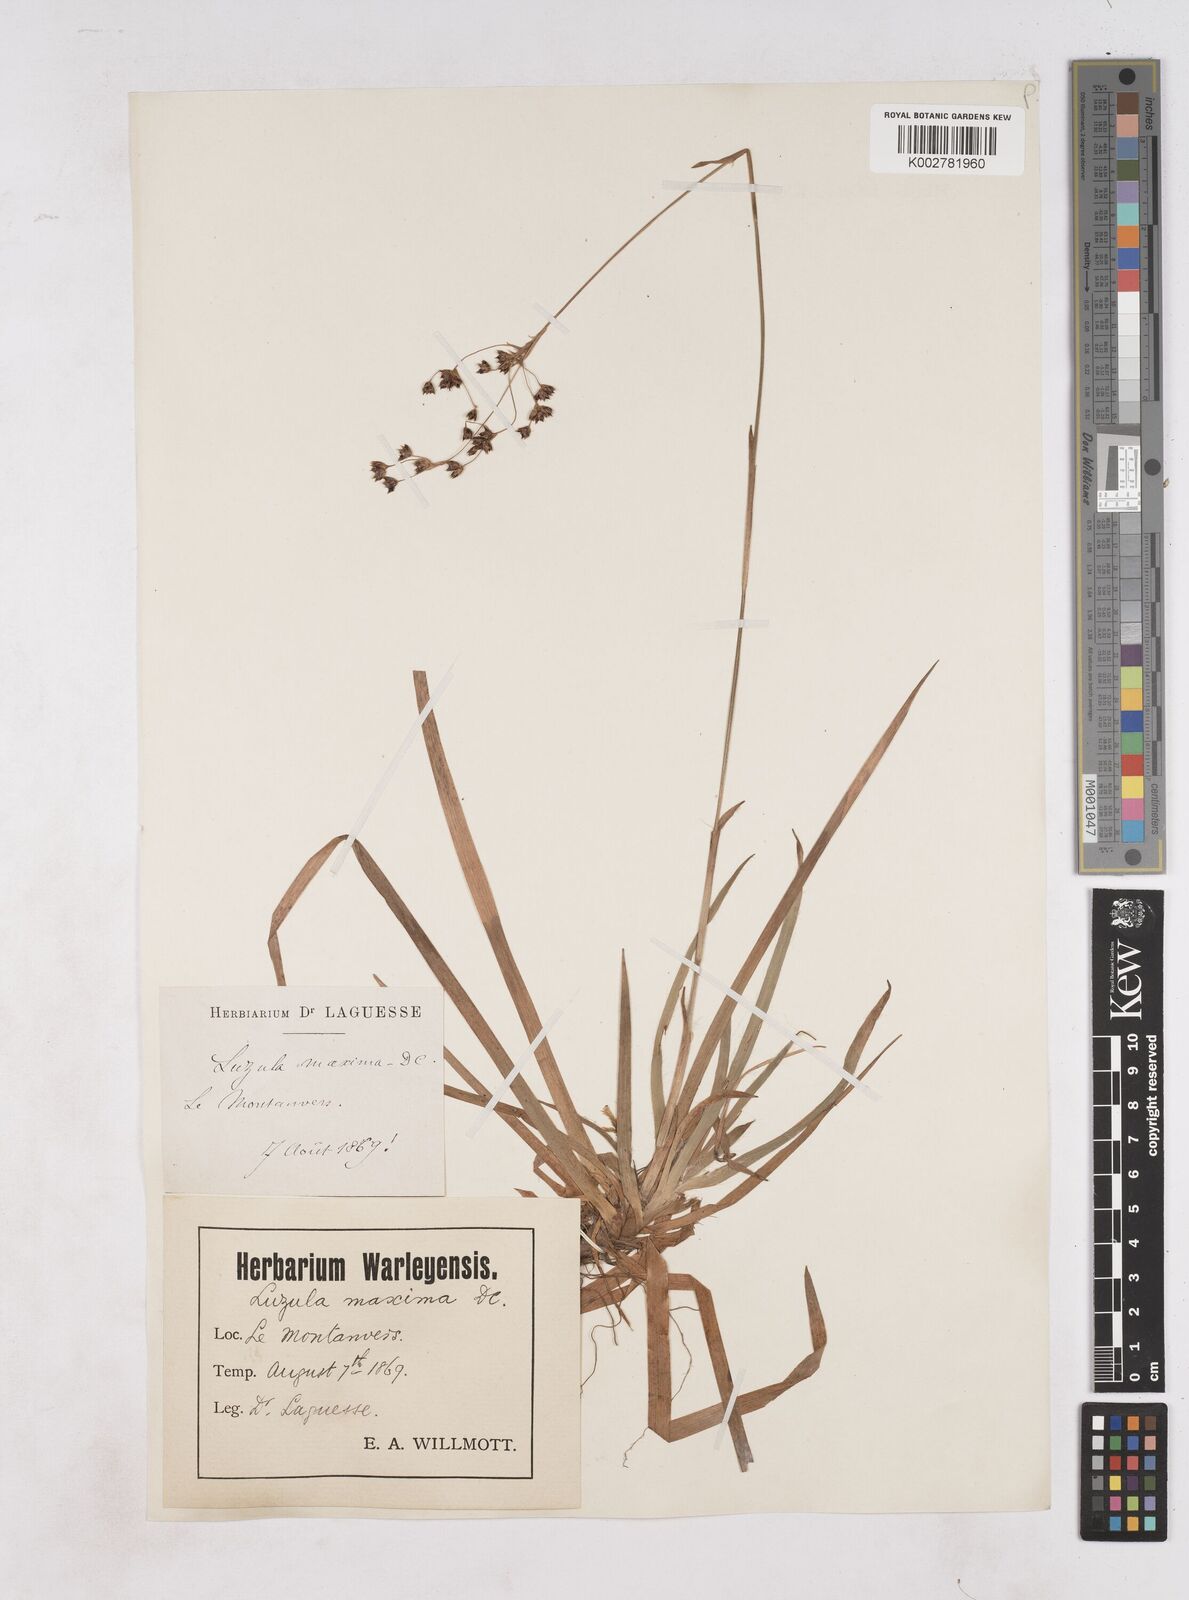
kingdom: Plantae
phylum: Tracheophyta
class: Liliopsida
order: Poales
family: Juncaceae
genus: Luzula
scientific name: Luzula sylvatica
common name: Great wood-rush
